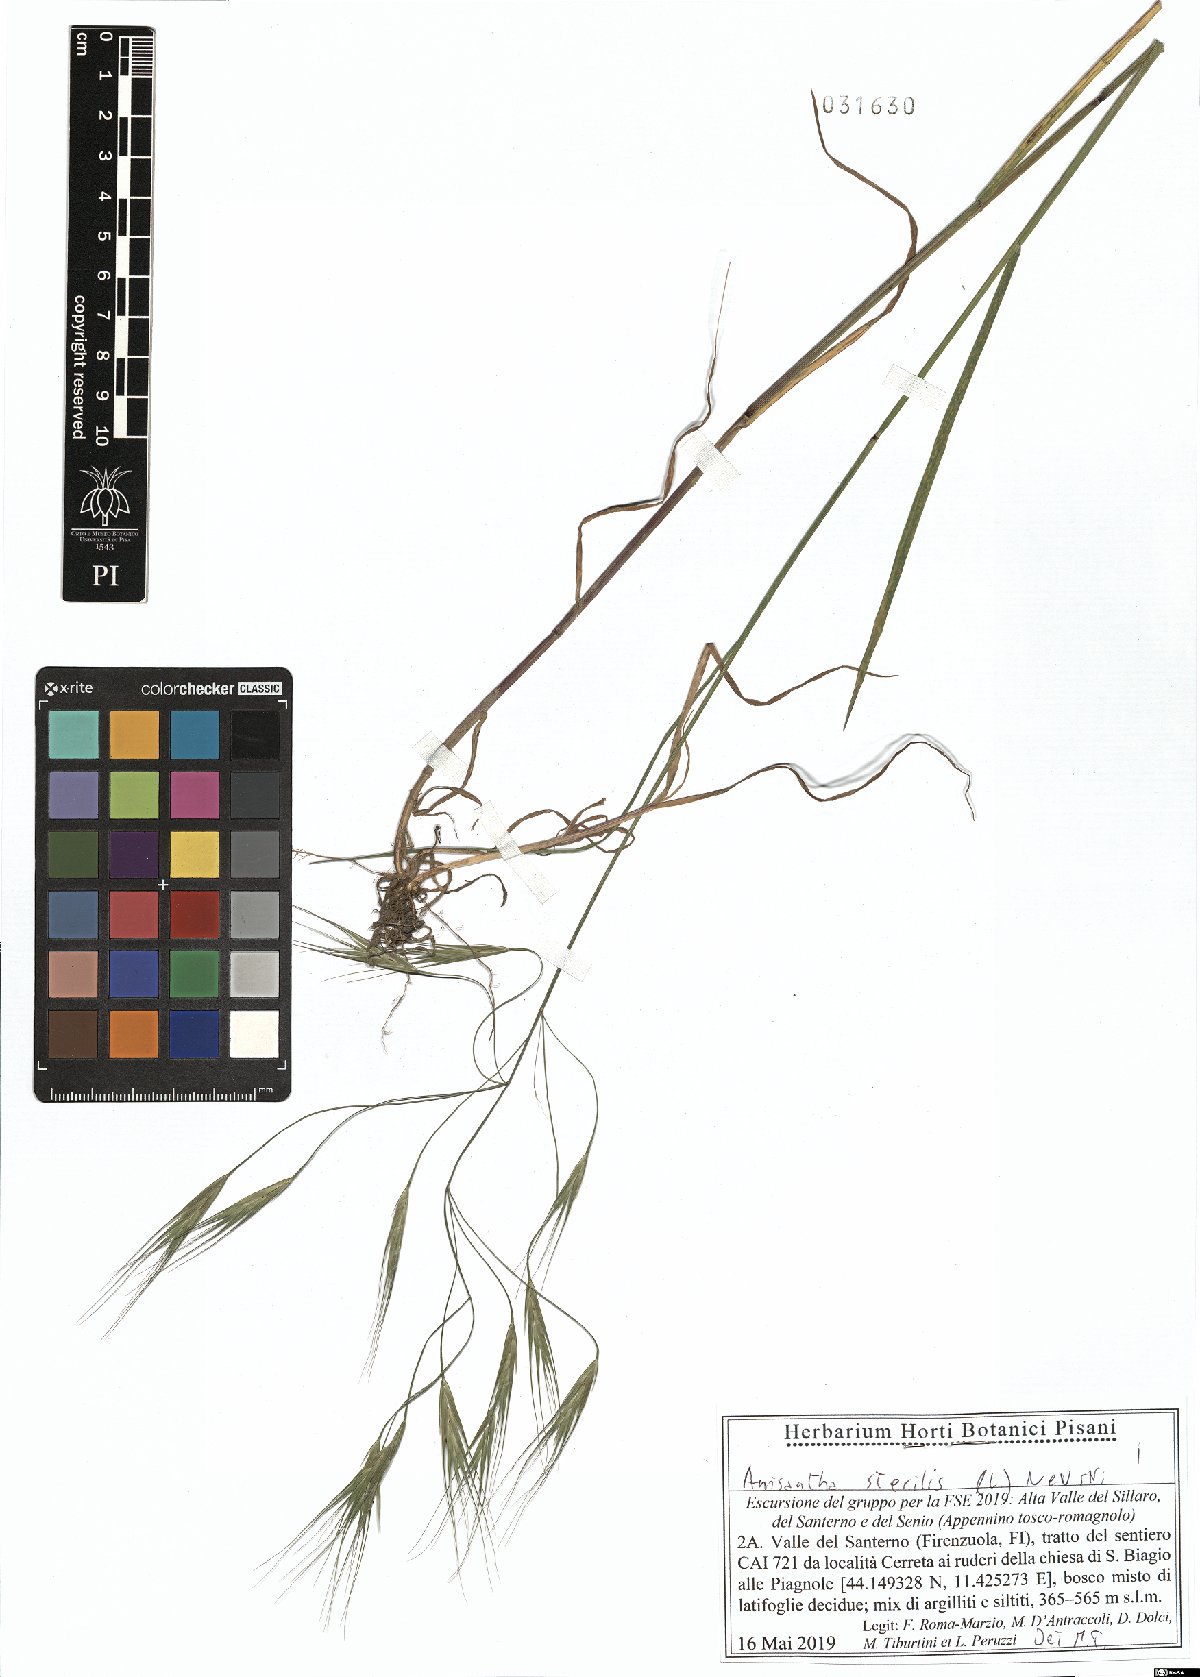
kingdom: Plantae
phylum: Tracheophyta
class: Liliopsida
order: Poales
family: Poaceae
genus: Bromus
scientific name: Bromus sterilis
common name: Poverty brome
